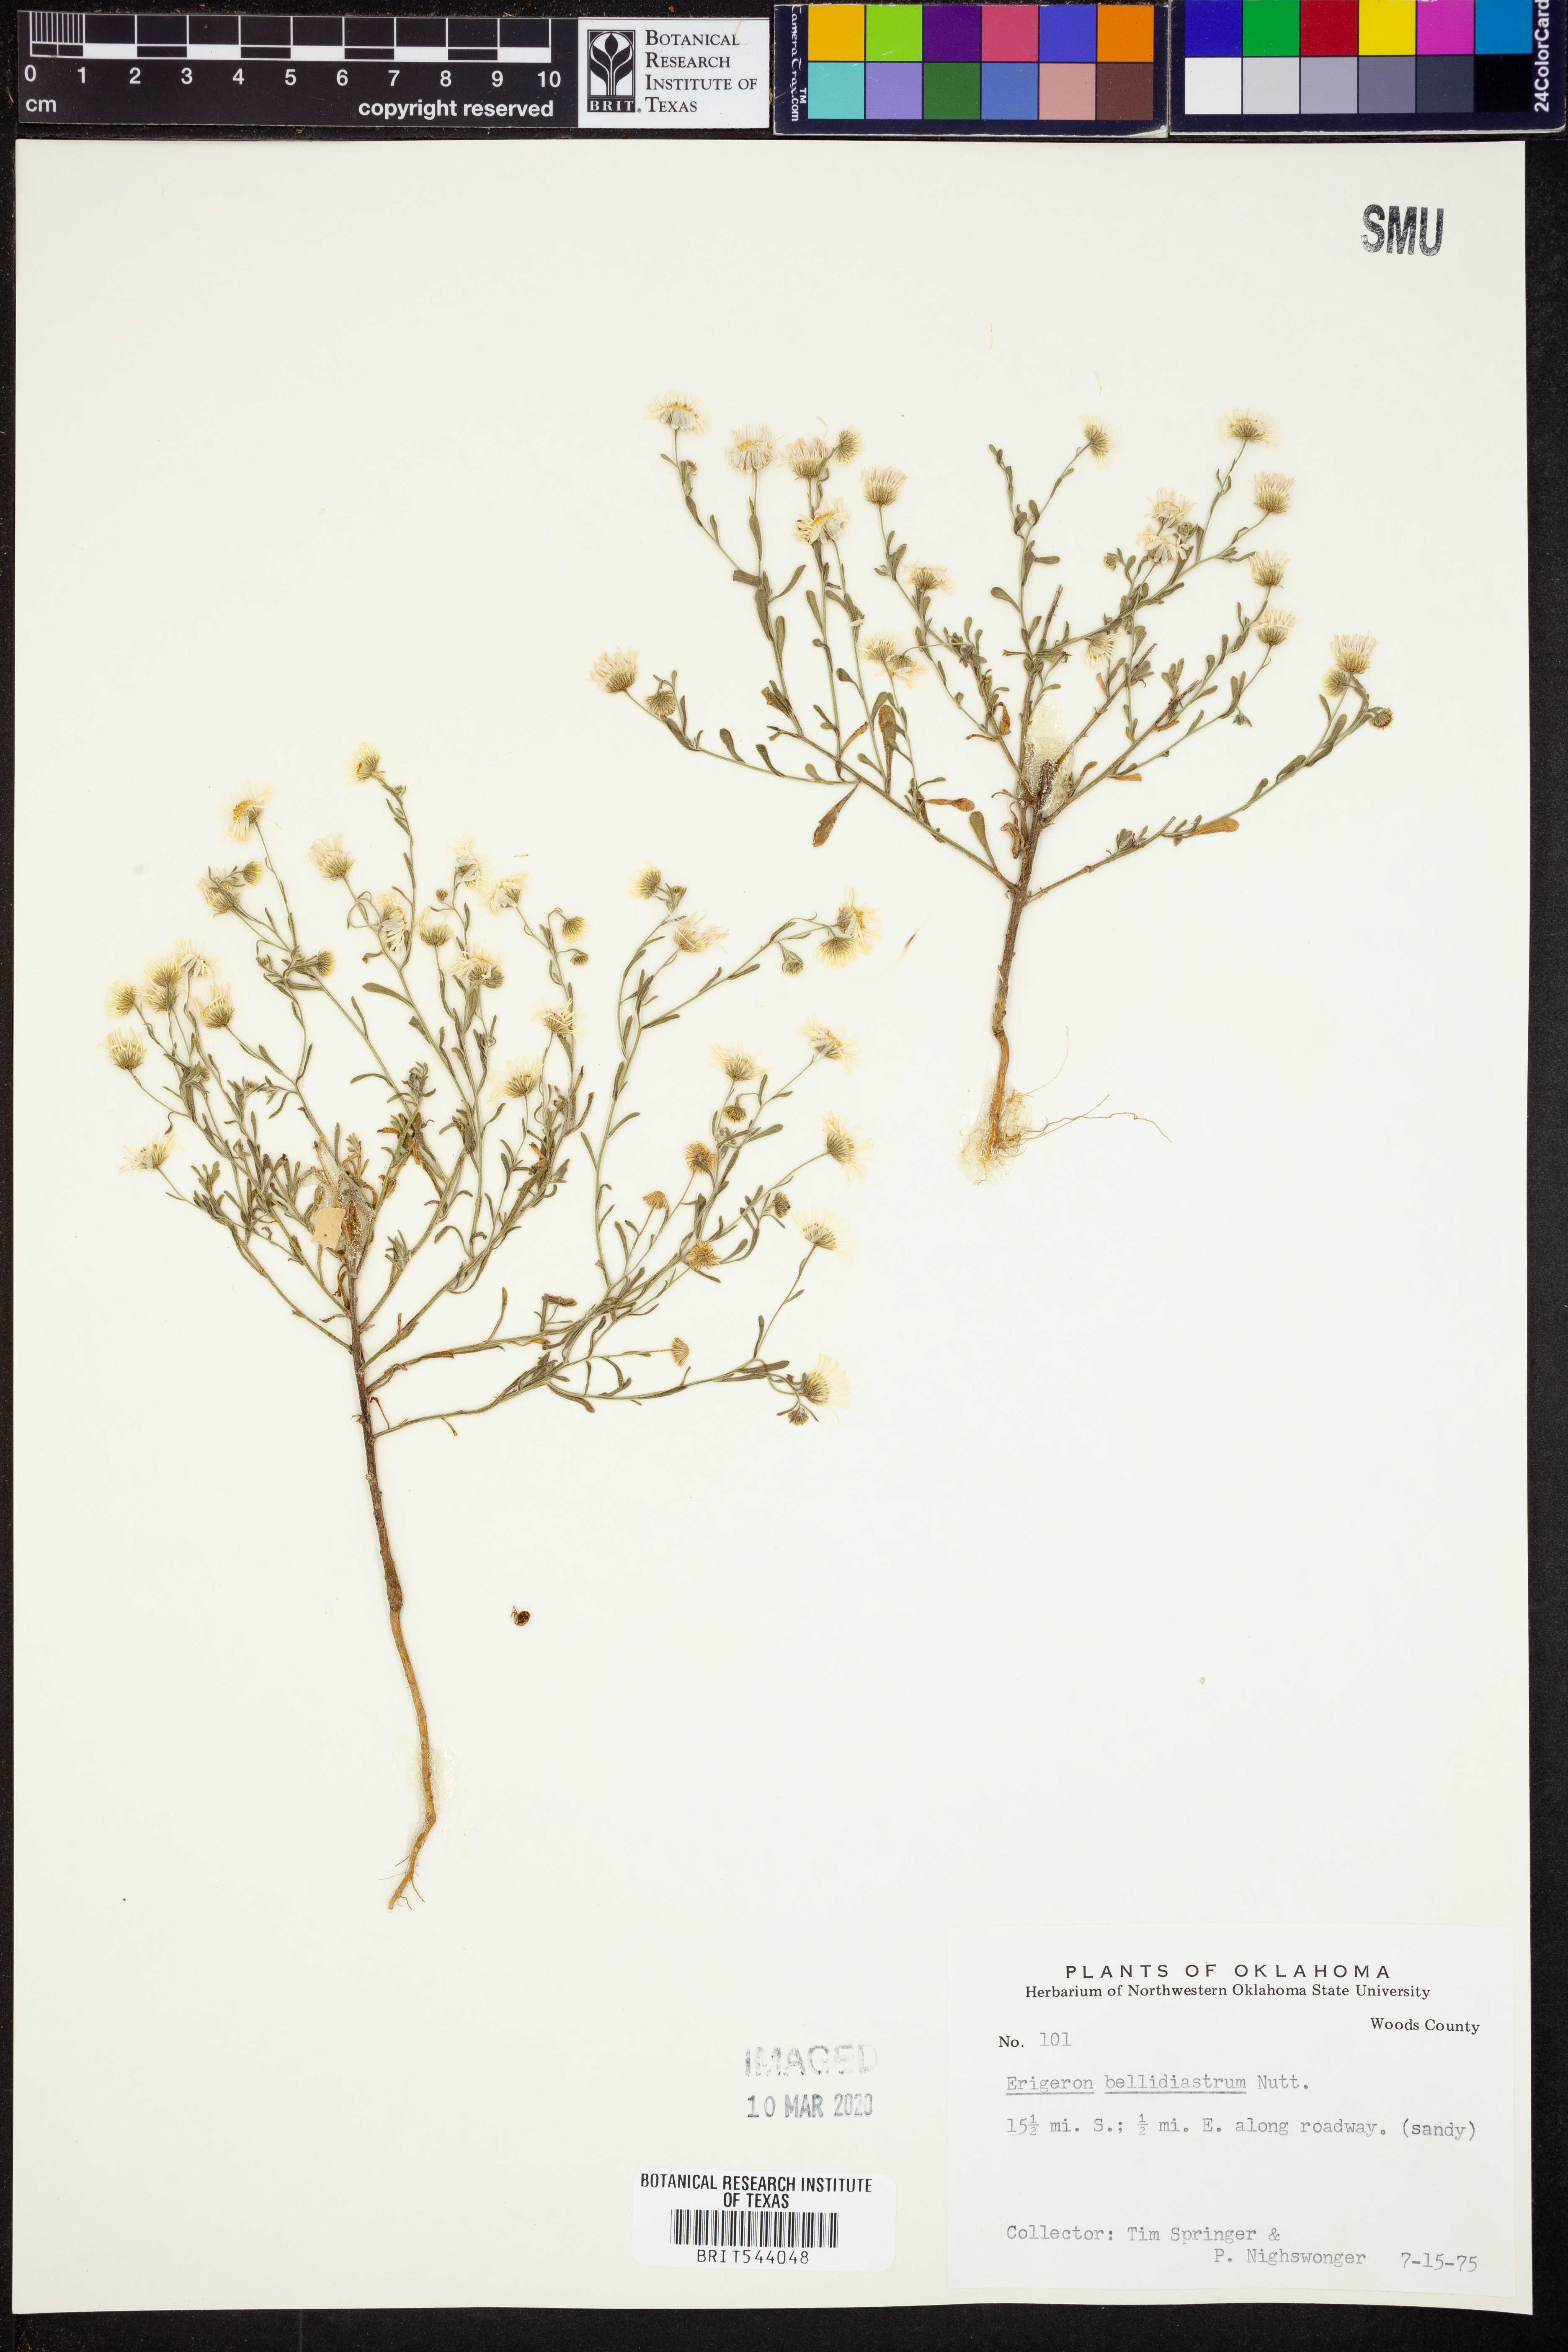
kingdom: Plantae
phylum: Tracheophyta
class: Magnoliopsida
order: Asterales
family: Asteraceae
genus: Erigeron
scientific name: Erigeron bellidiastrum
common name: Sand fleabane
